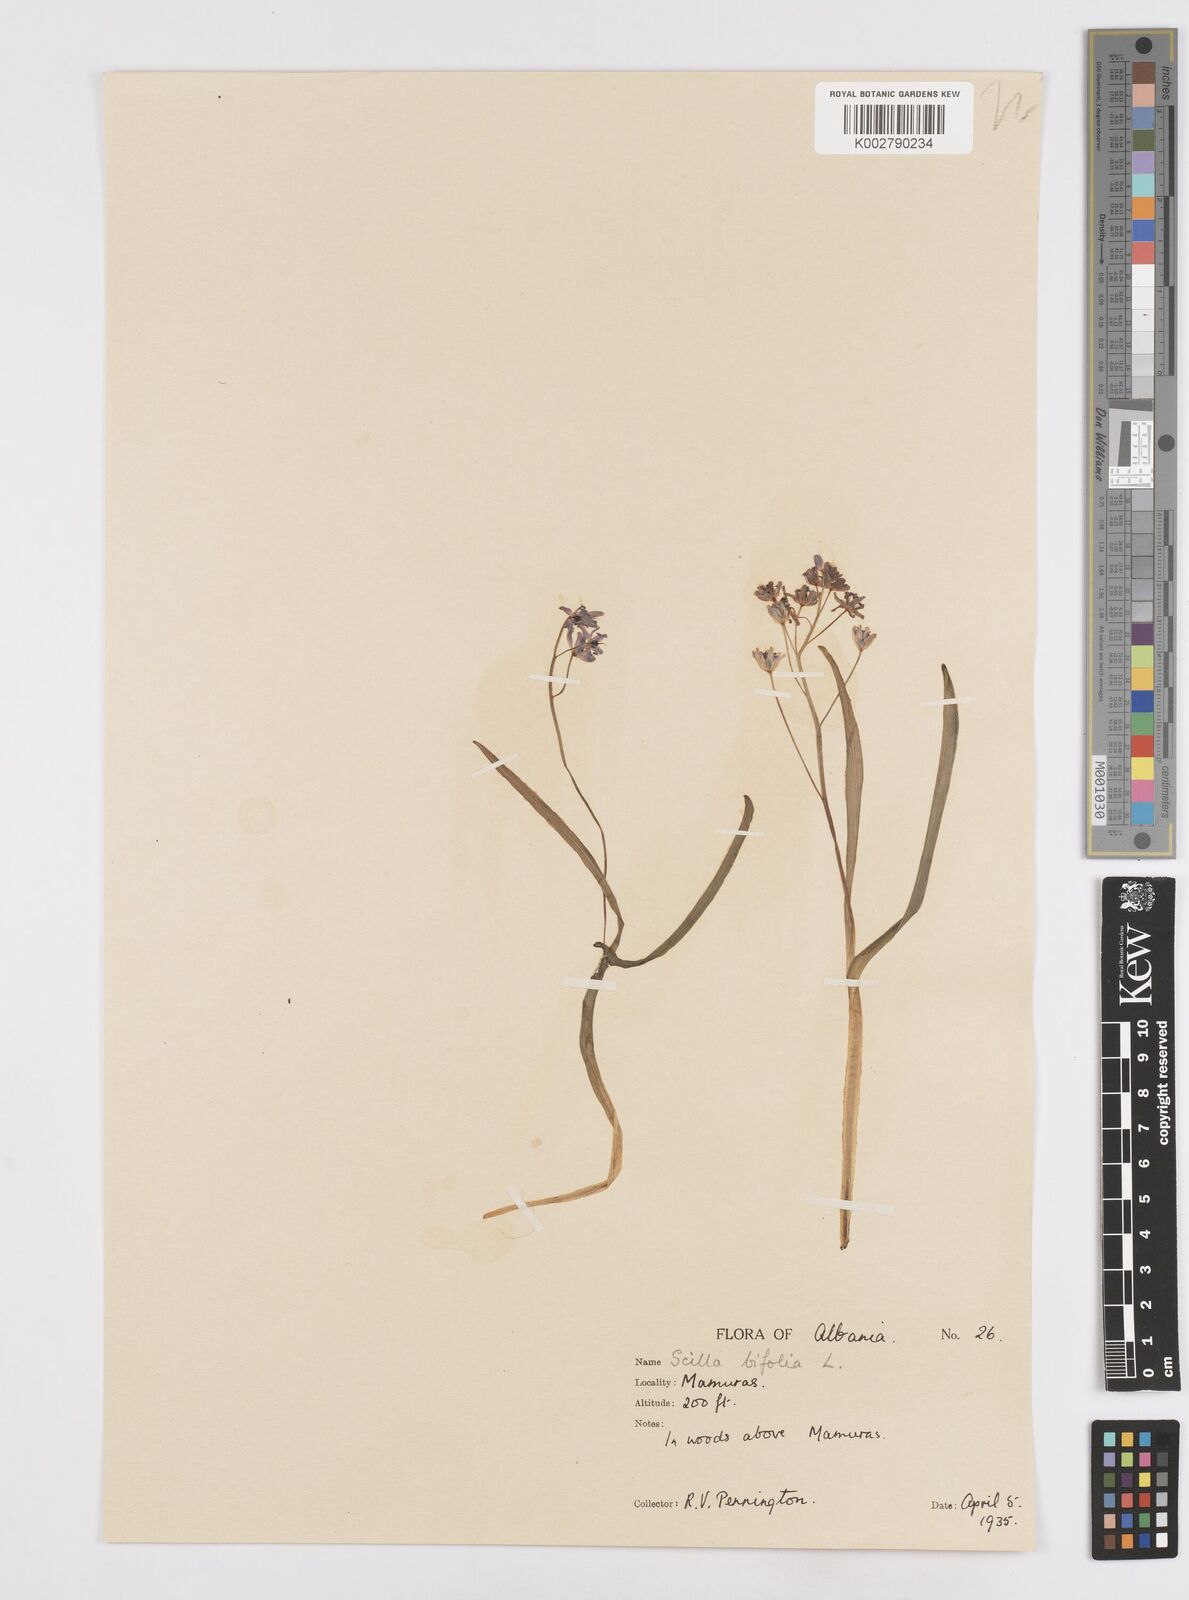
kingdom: Plantae
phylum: Tracheophyta
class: Liliopsida
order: Asparagales
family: Asparagaceae
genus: Scilla
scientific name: Scilla bifolia
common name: Alpine squill
